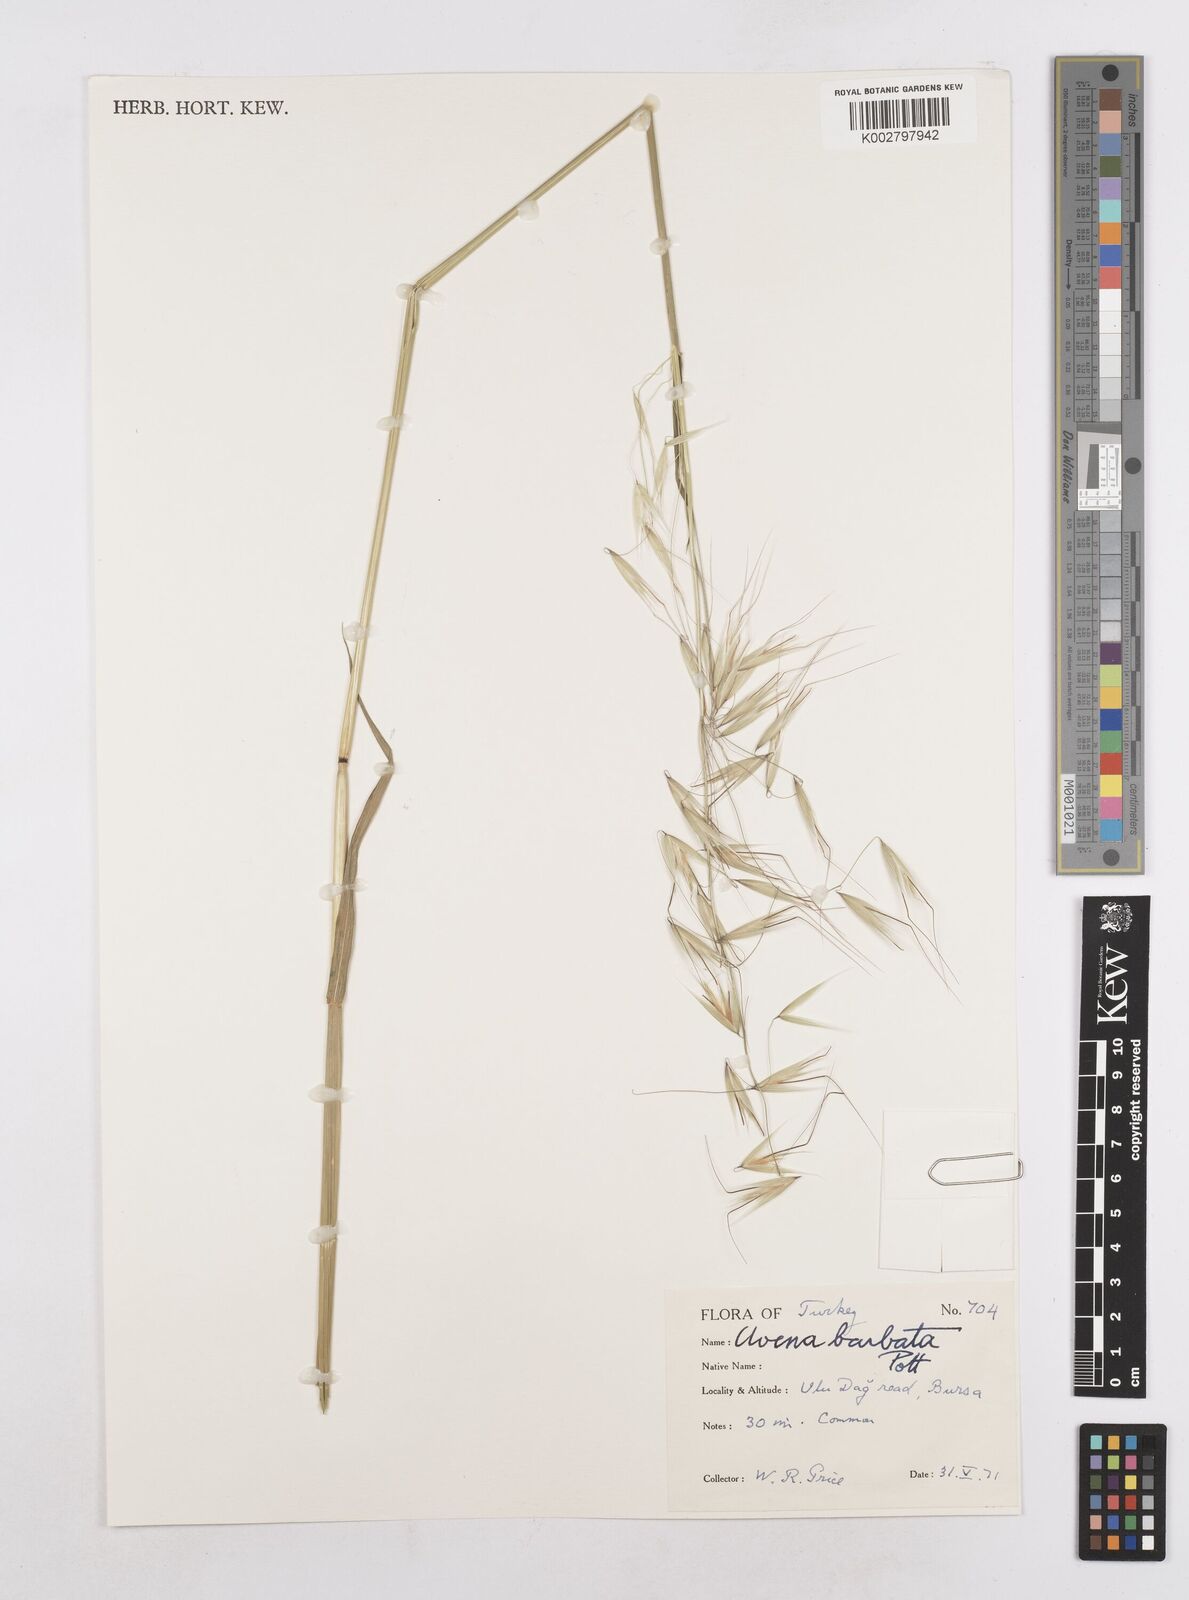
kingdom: Plantae
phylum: Tracheophyta
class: Liliopsida
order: Poales
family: Poaceae
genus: Avena
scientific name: Avena
